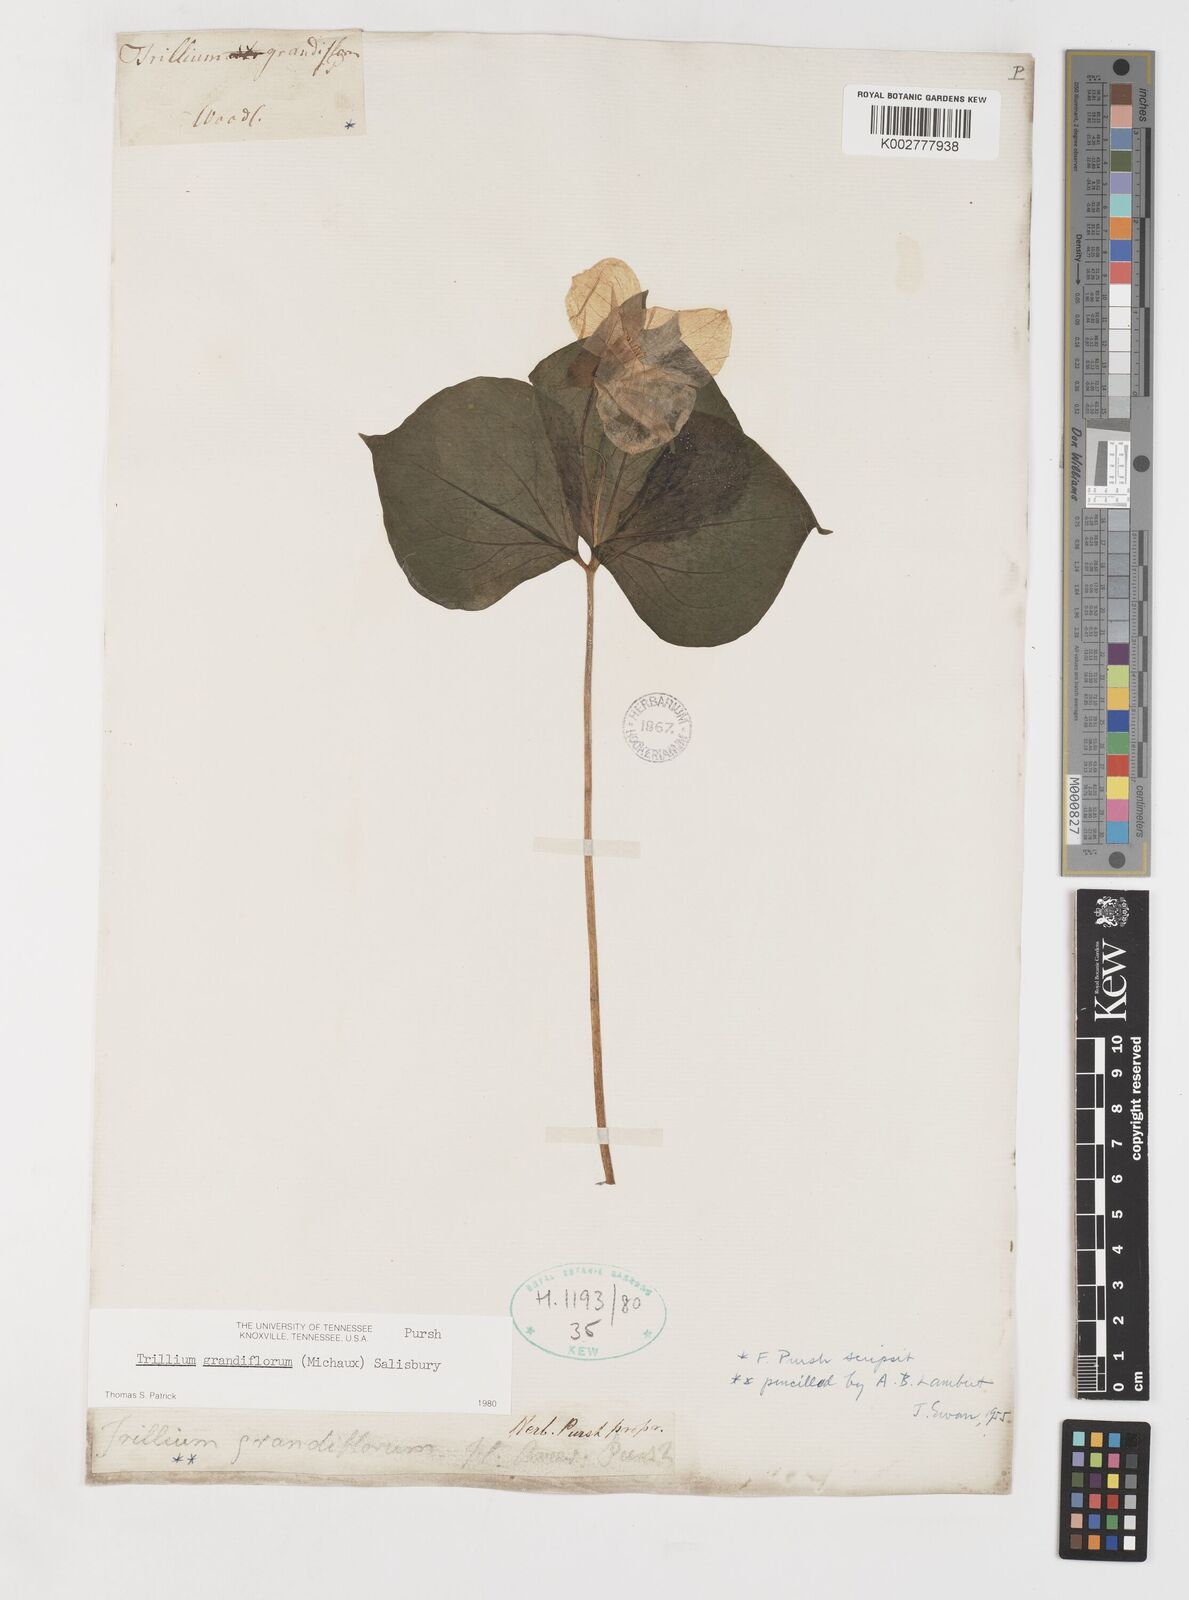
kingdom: Plantae
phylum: Tracheophyta
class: Liliopsida
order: Liliales
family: Melanthiaceae
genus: Trillium
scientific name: Trillium grandiflorum
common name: Great white trillium
